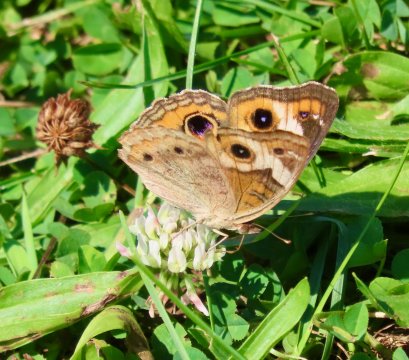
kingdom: Animalia
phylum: Arthropoda
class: Insecta
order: Lepidoptera
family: Nymphalidae
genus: Junonia
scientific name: Junonia coenia
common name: Common Buckeye
